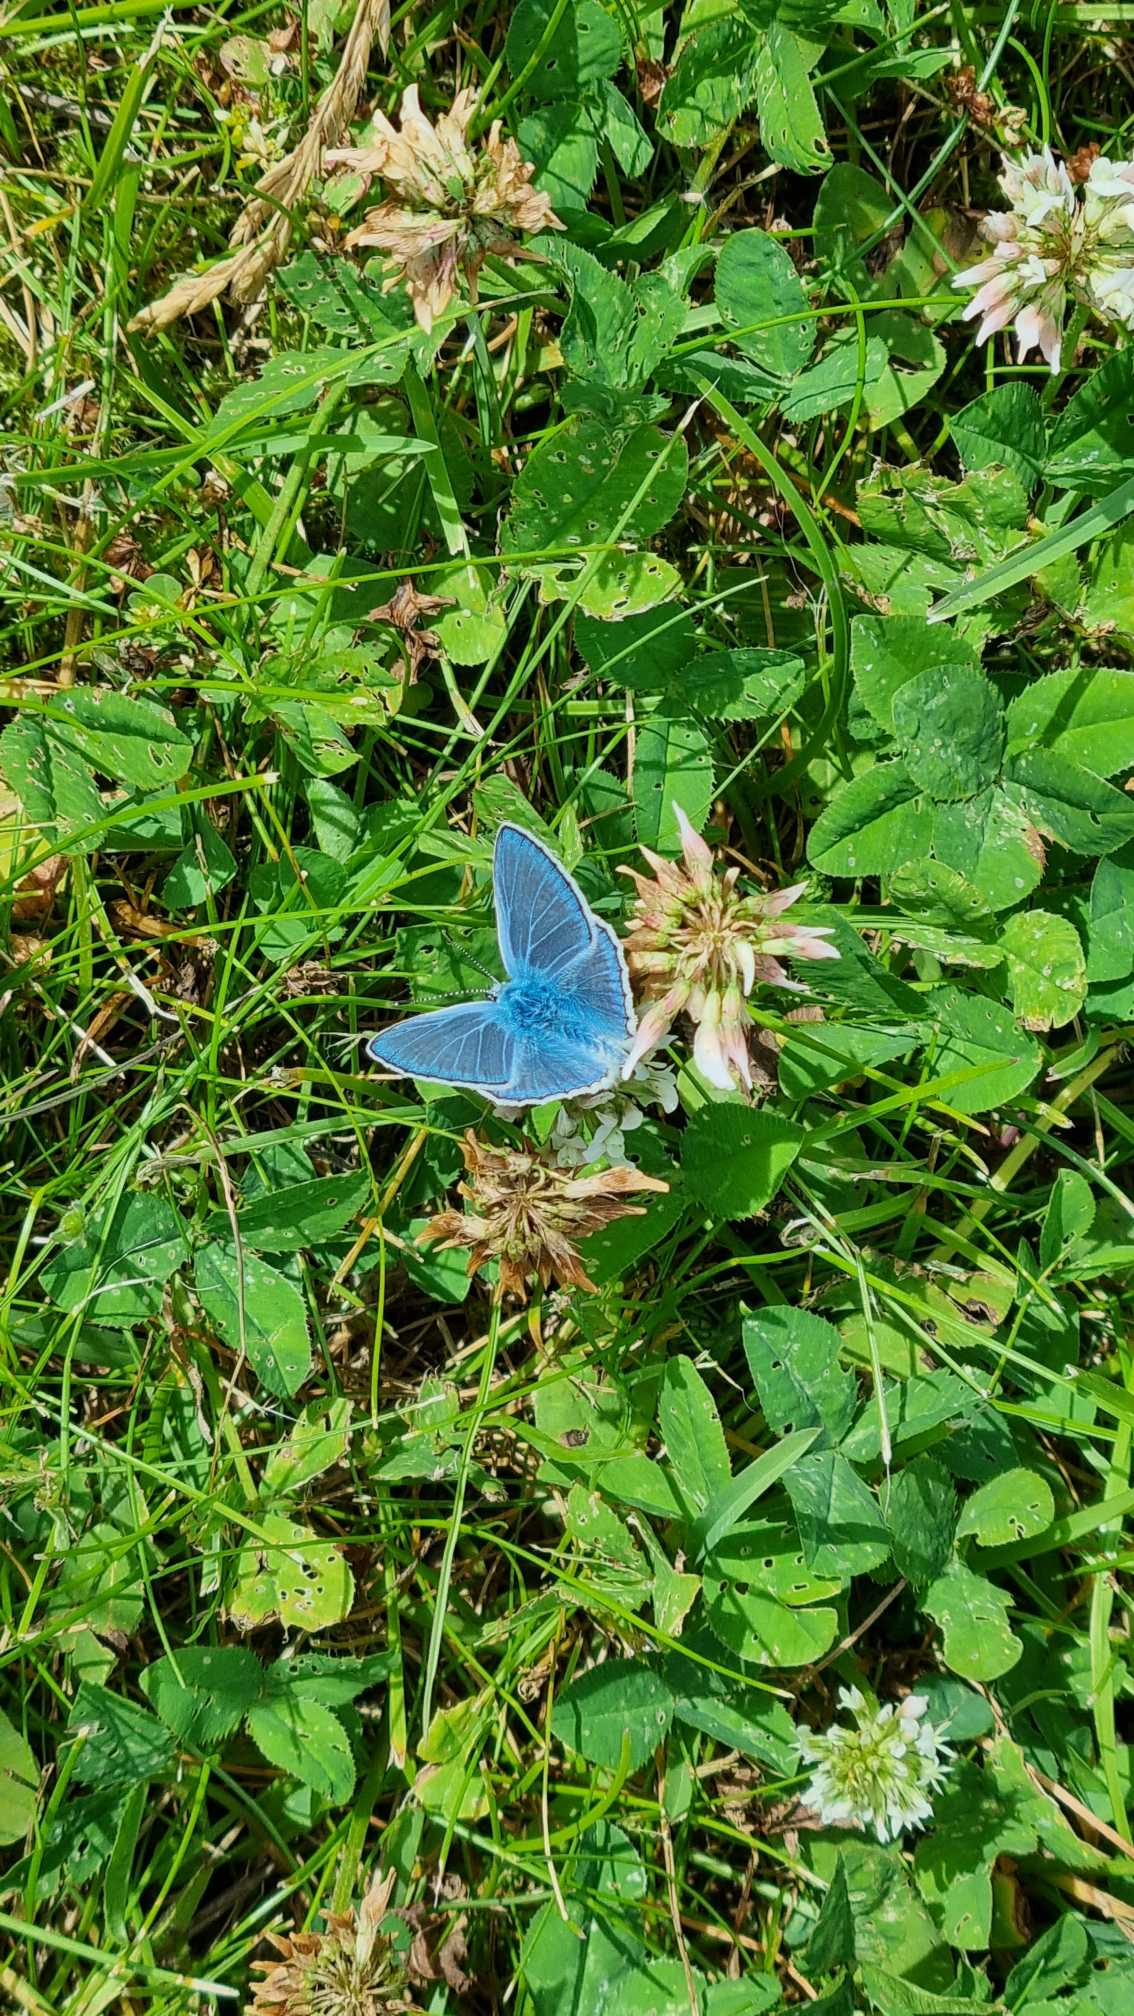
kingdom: Animalia
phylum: Arthropoda
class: Insecta
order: Lepidoptera
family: Lycaenidae
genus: Polyommatus
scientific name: Polyommatus icarus
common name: Almindelig blåfugl
